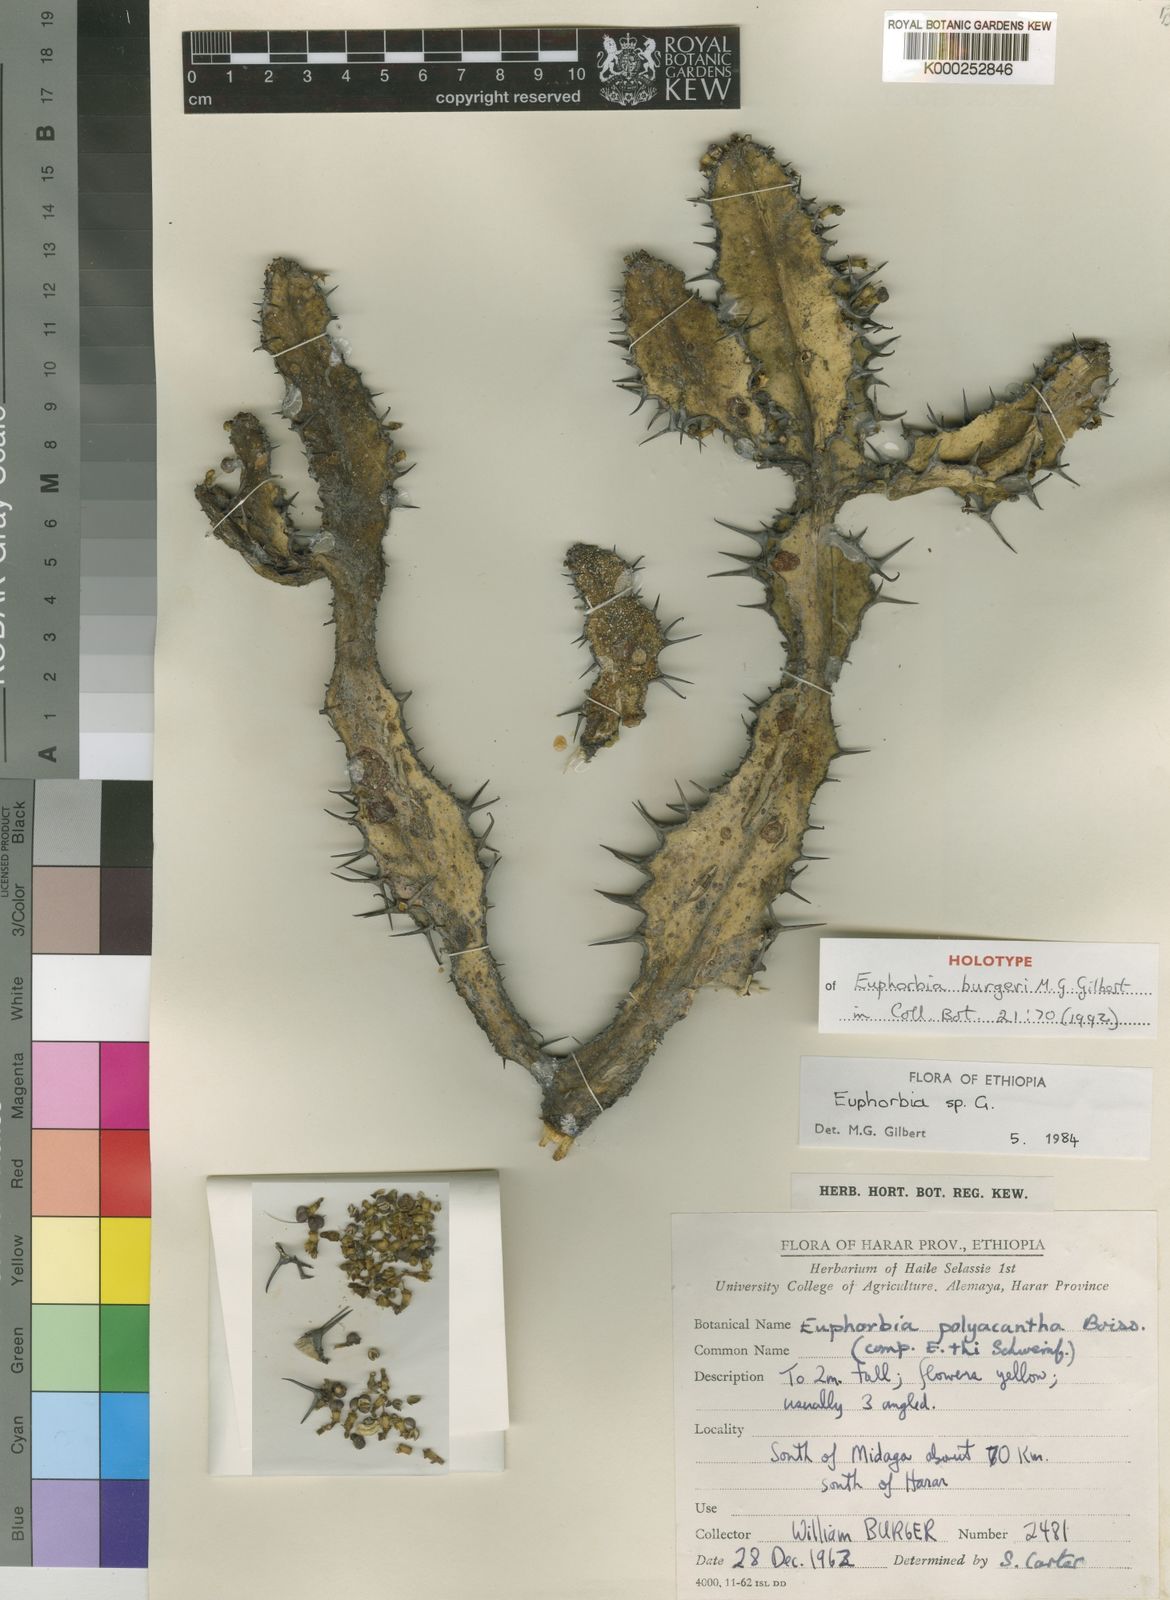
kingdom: Plantae
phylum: Tracheophyta
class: Magnoliopsida
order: Malpighiales
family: Euphorbiaceae
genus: Euphorbia
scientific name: Euphorbia burgeri
